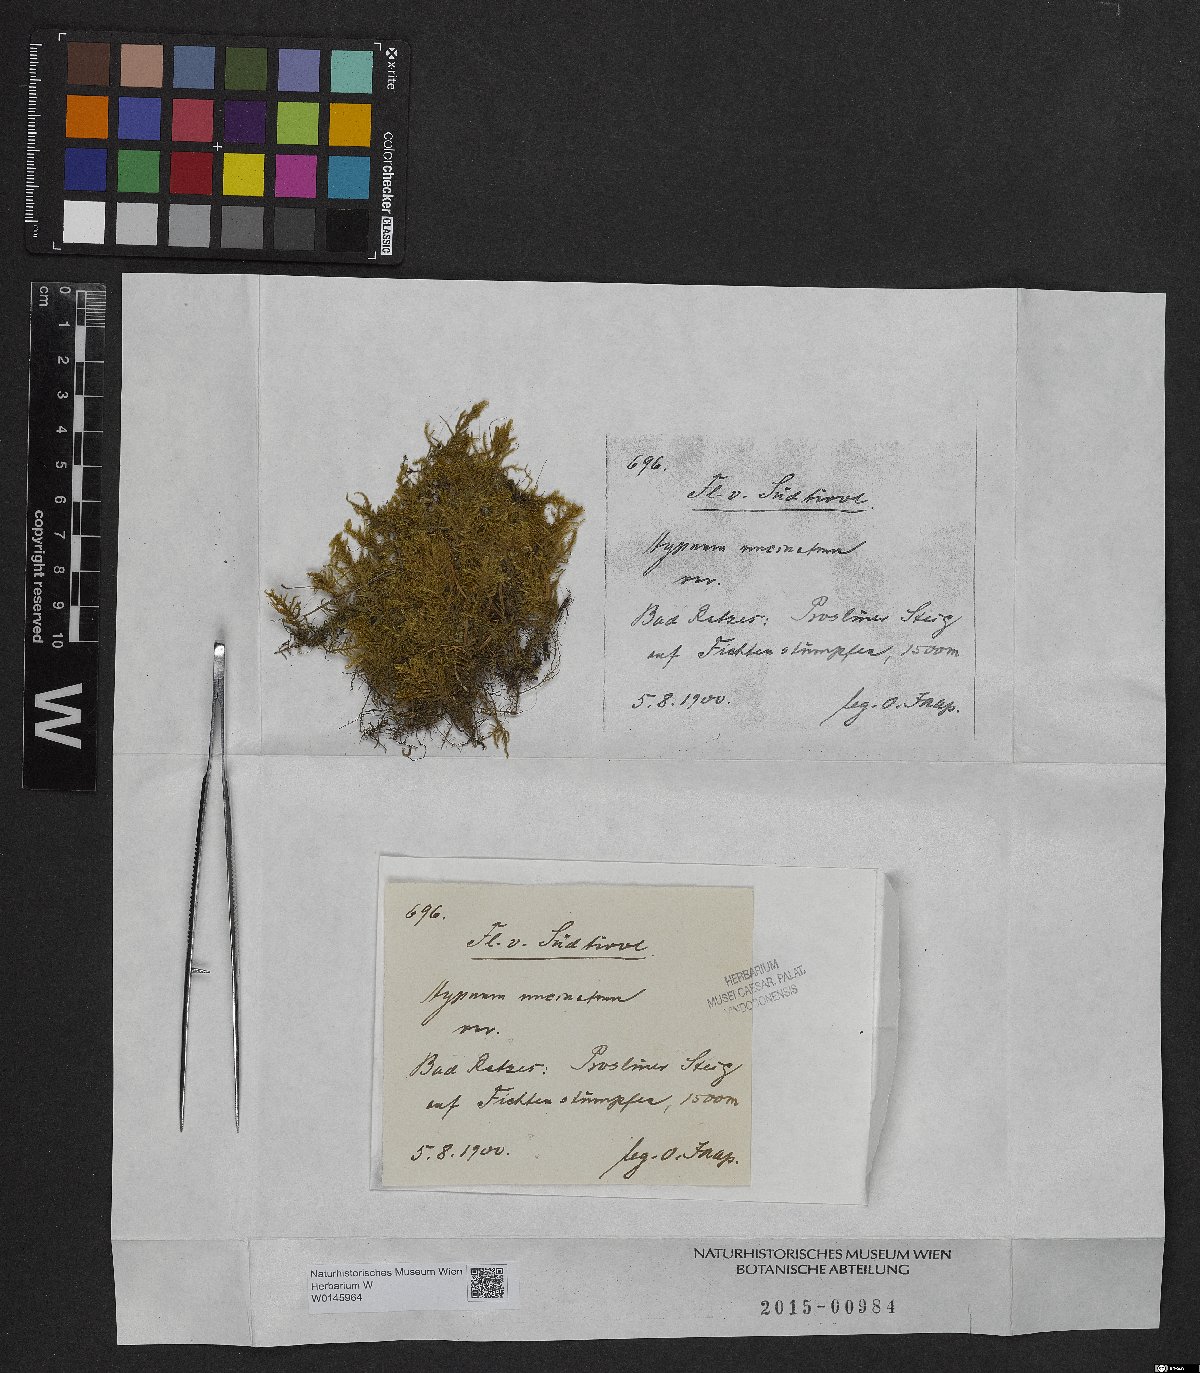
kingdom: Plantae
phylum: Bryophyta
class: Bryopsida
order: Hypnales
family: Scorpidiaceae
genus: Sanionia
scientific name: Sanionia uncinata
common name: Sickle moss
